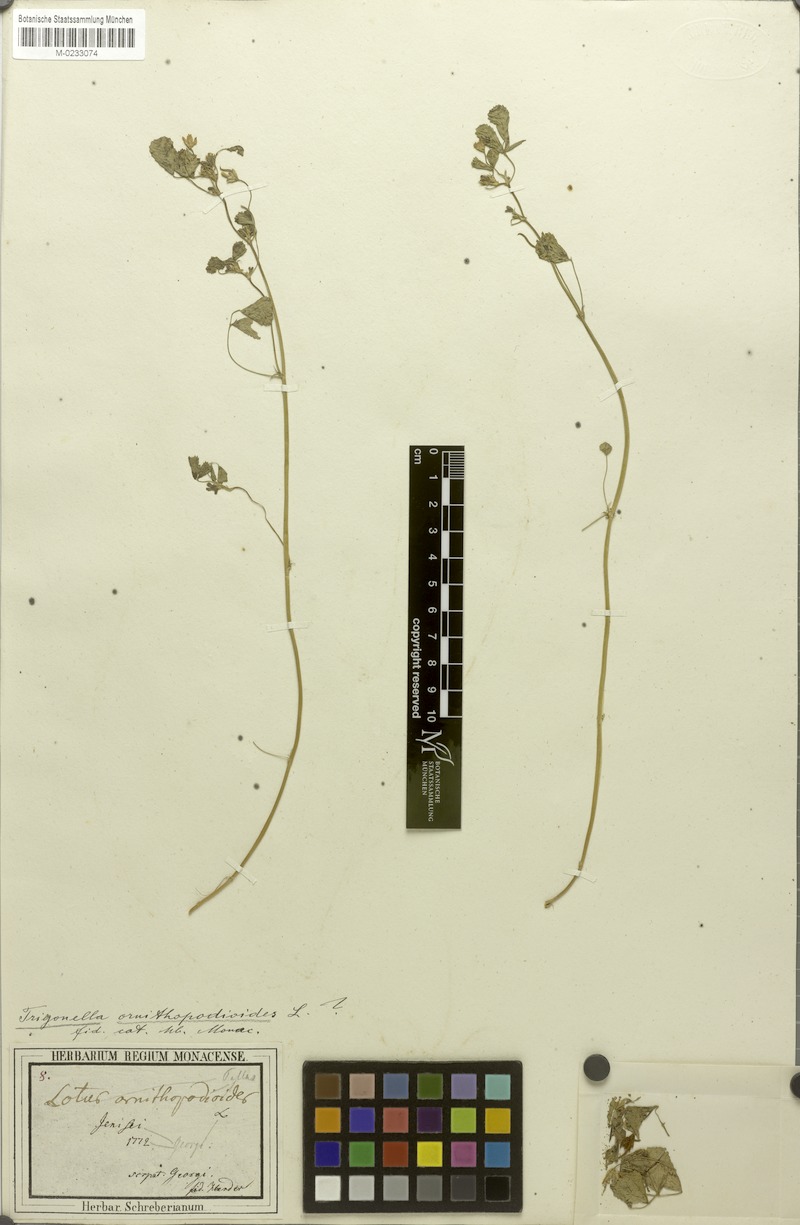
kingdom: Plantae
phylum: Tracheophyta
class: Magnoliopsida
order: Fabales
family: Fabaceae
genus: Trifolium
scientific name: Trifolium ornithopodioides
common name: Bird's-foot clover
